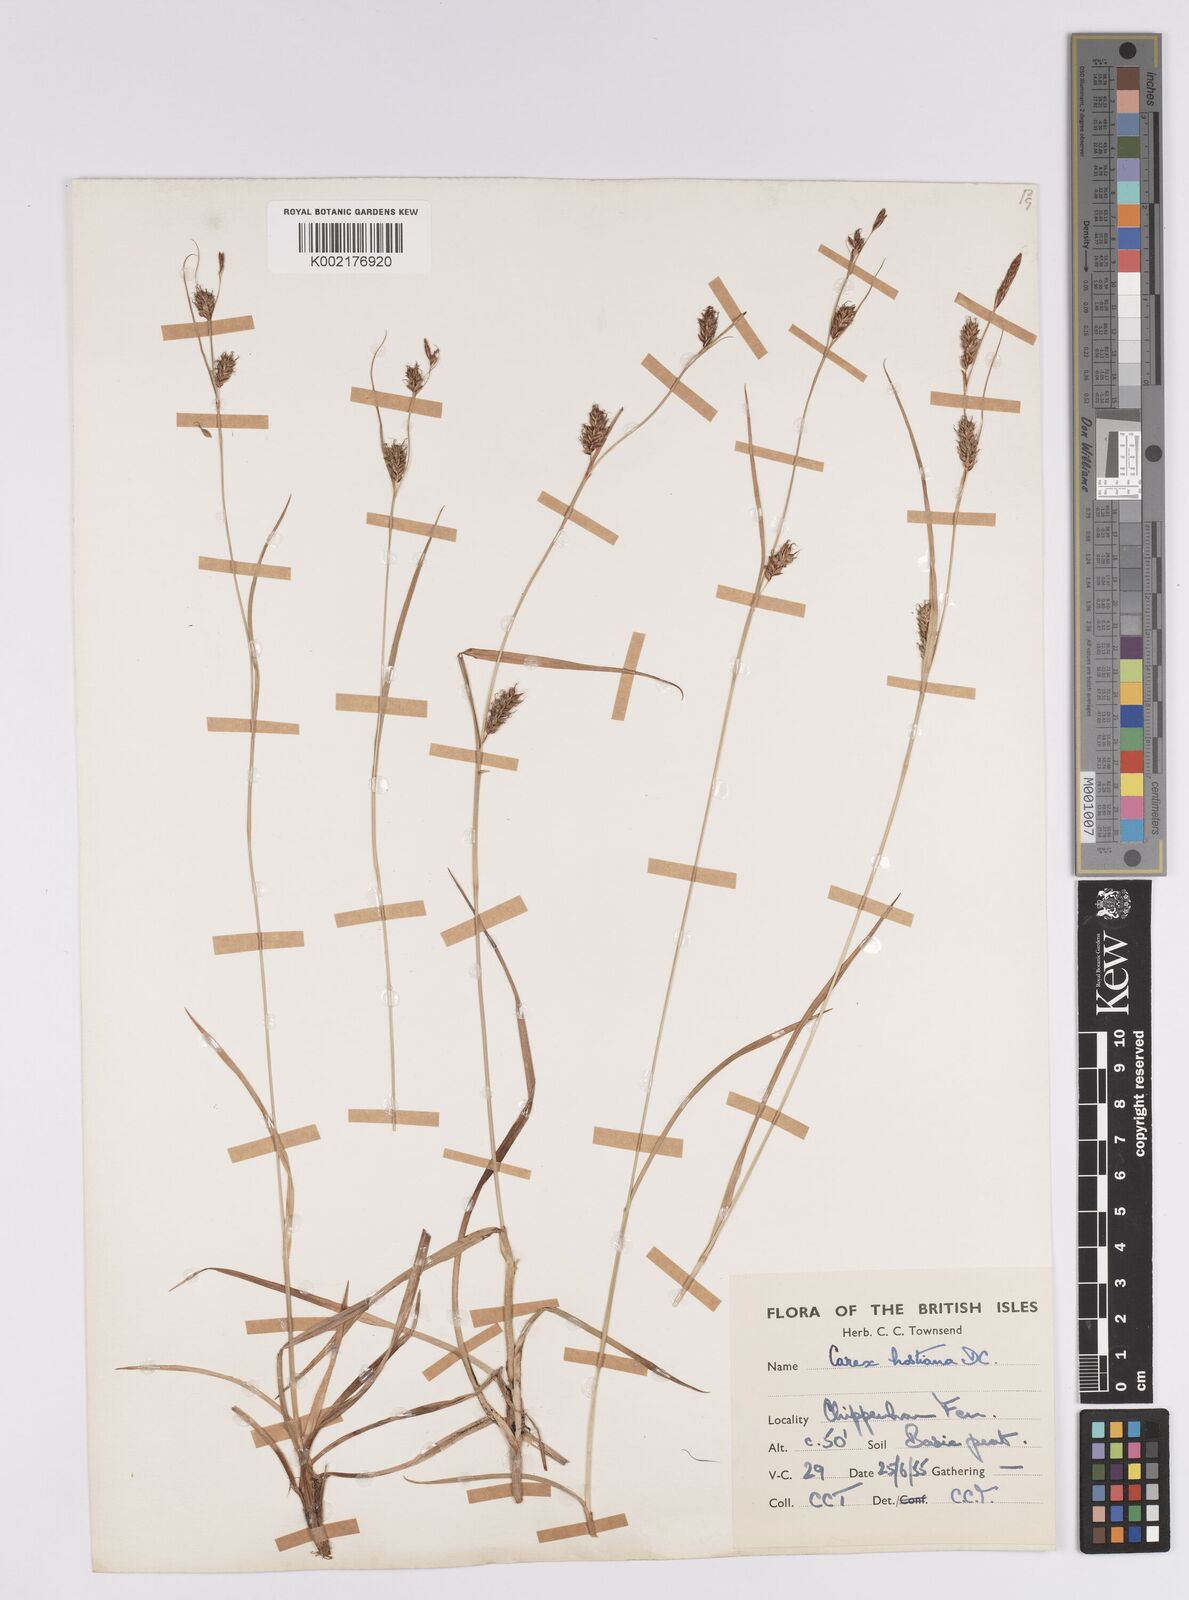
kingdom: Plantae
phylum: Tracheophyta
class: Liliopsida
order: Poales
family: Cyperaceae
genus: Carex
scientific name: Carex hostiana
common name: Tawny sedge
